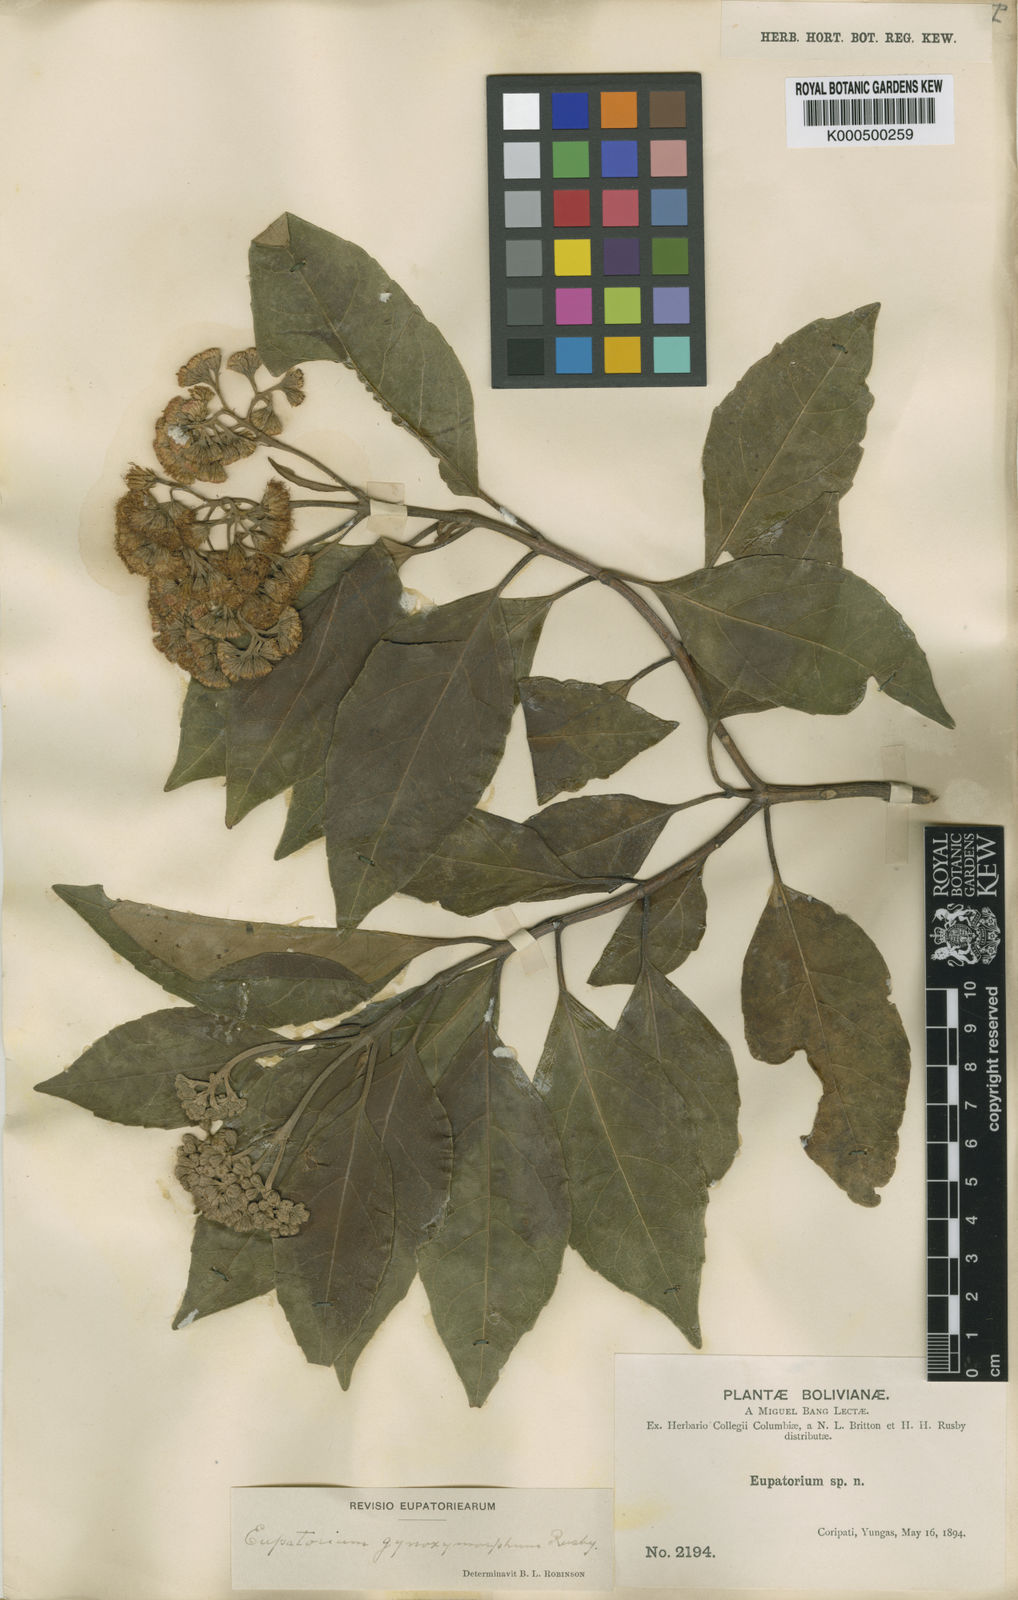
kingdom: Plantae
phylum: Tracheophyta
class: Magnoliopsida
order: Asterales
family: Asteraceae
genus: Kaunia
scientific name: Kaunia gynoximorpha
